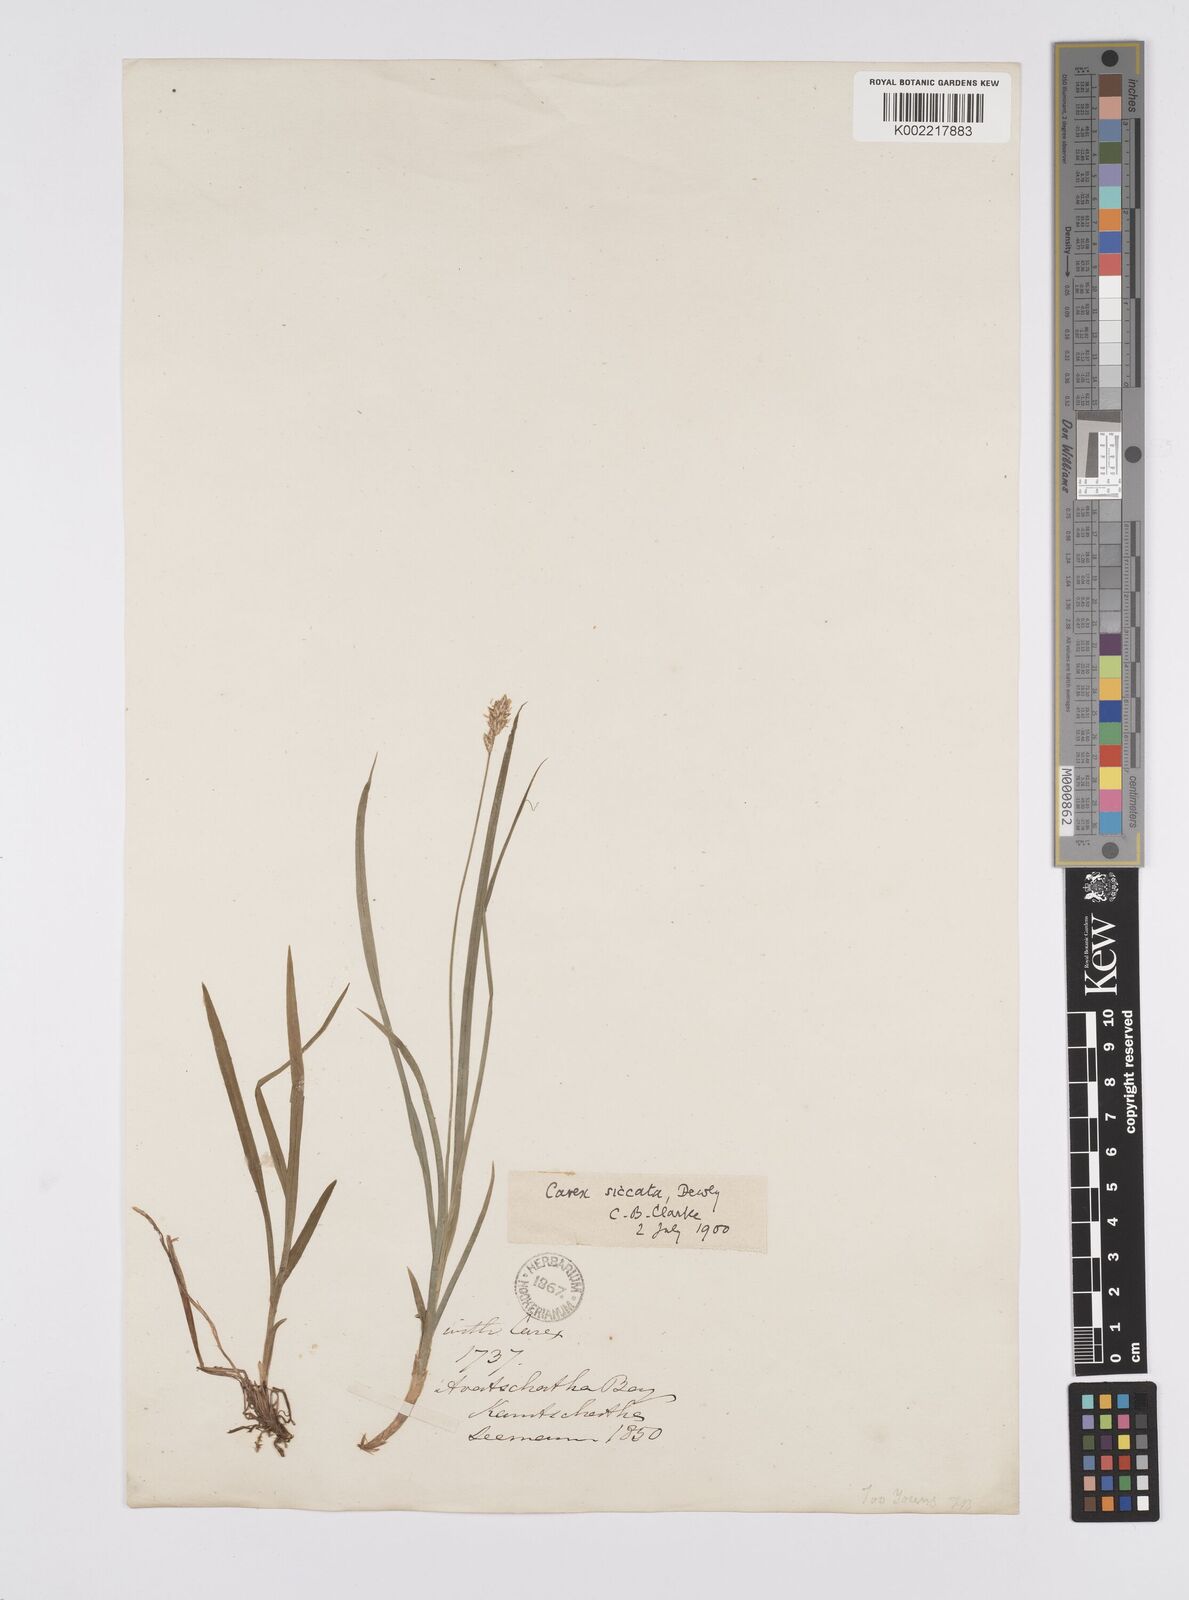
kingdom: Plantae
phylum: Tracheophyta
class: Liliopsida
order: Poales
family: Cyperaceae
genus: Carex
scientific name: Carex siccata
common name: Dry sedge
